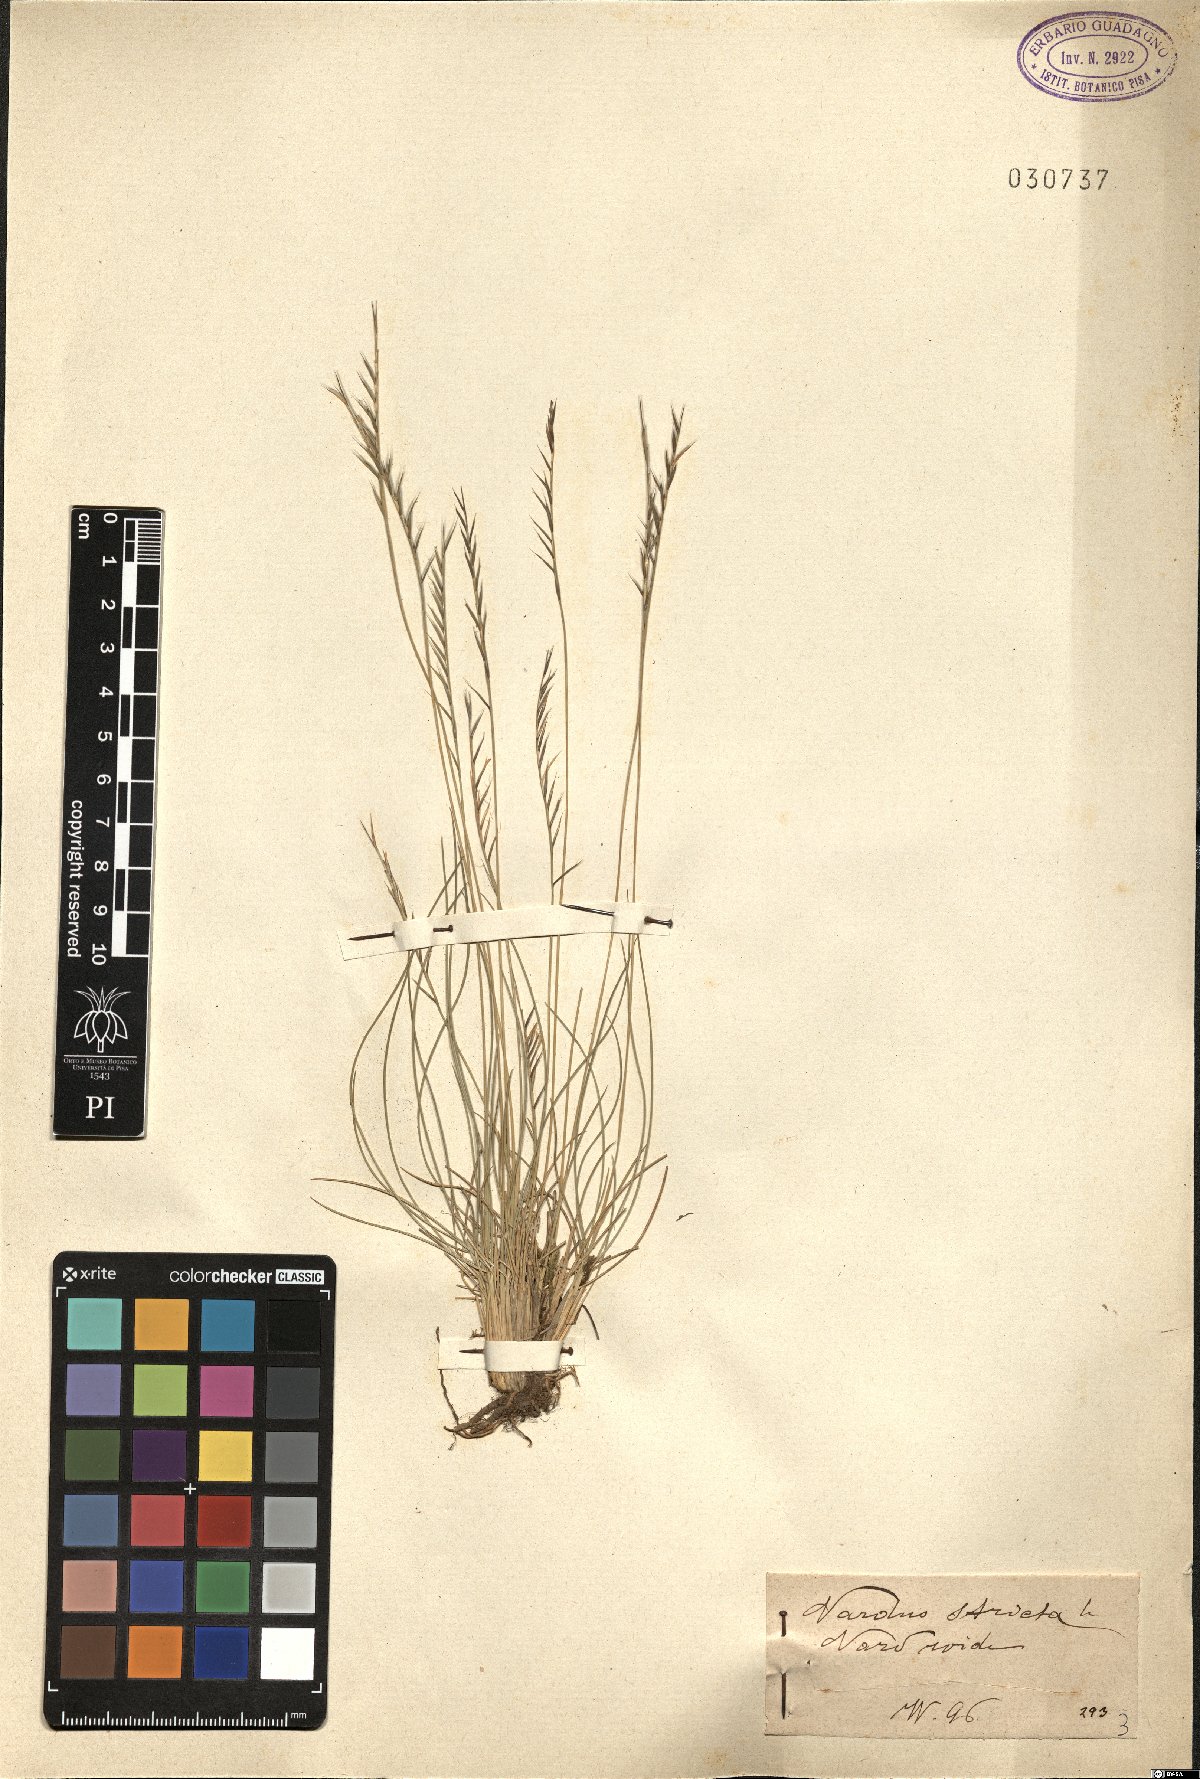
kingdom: Plantae
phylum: Tracheophyta
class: Liliopsida
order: Poales
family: Poaceae
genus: Nardus
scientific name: Nardus stricta
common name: Mat-grass
